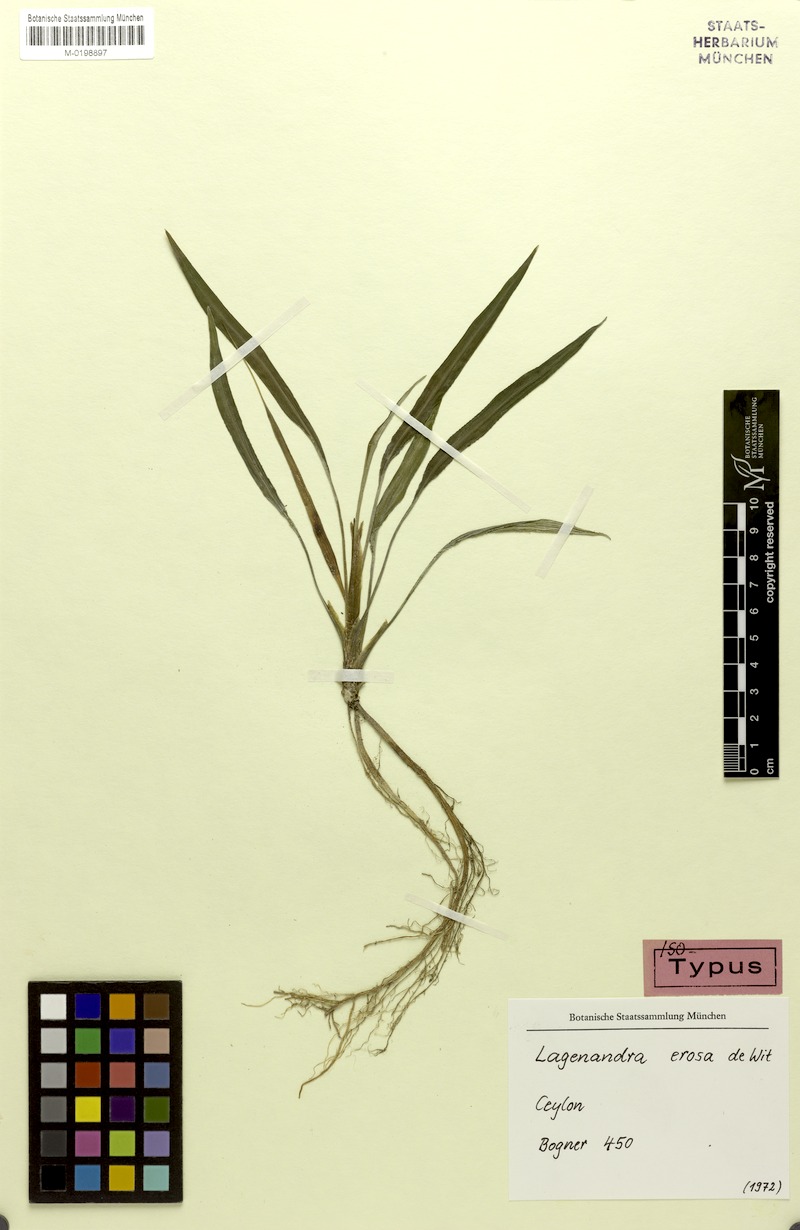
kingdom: Plantae
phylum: Tracheophyta
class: Liliopsida
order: Alismatales
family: Araceae
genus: Lagenandra
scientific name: Lagenandra erosa
